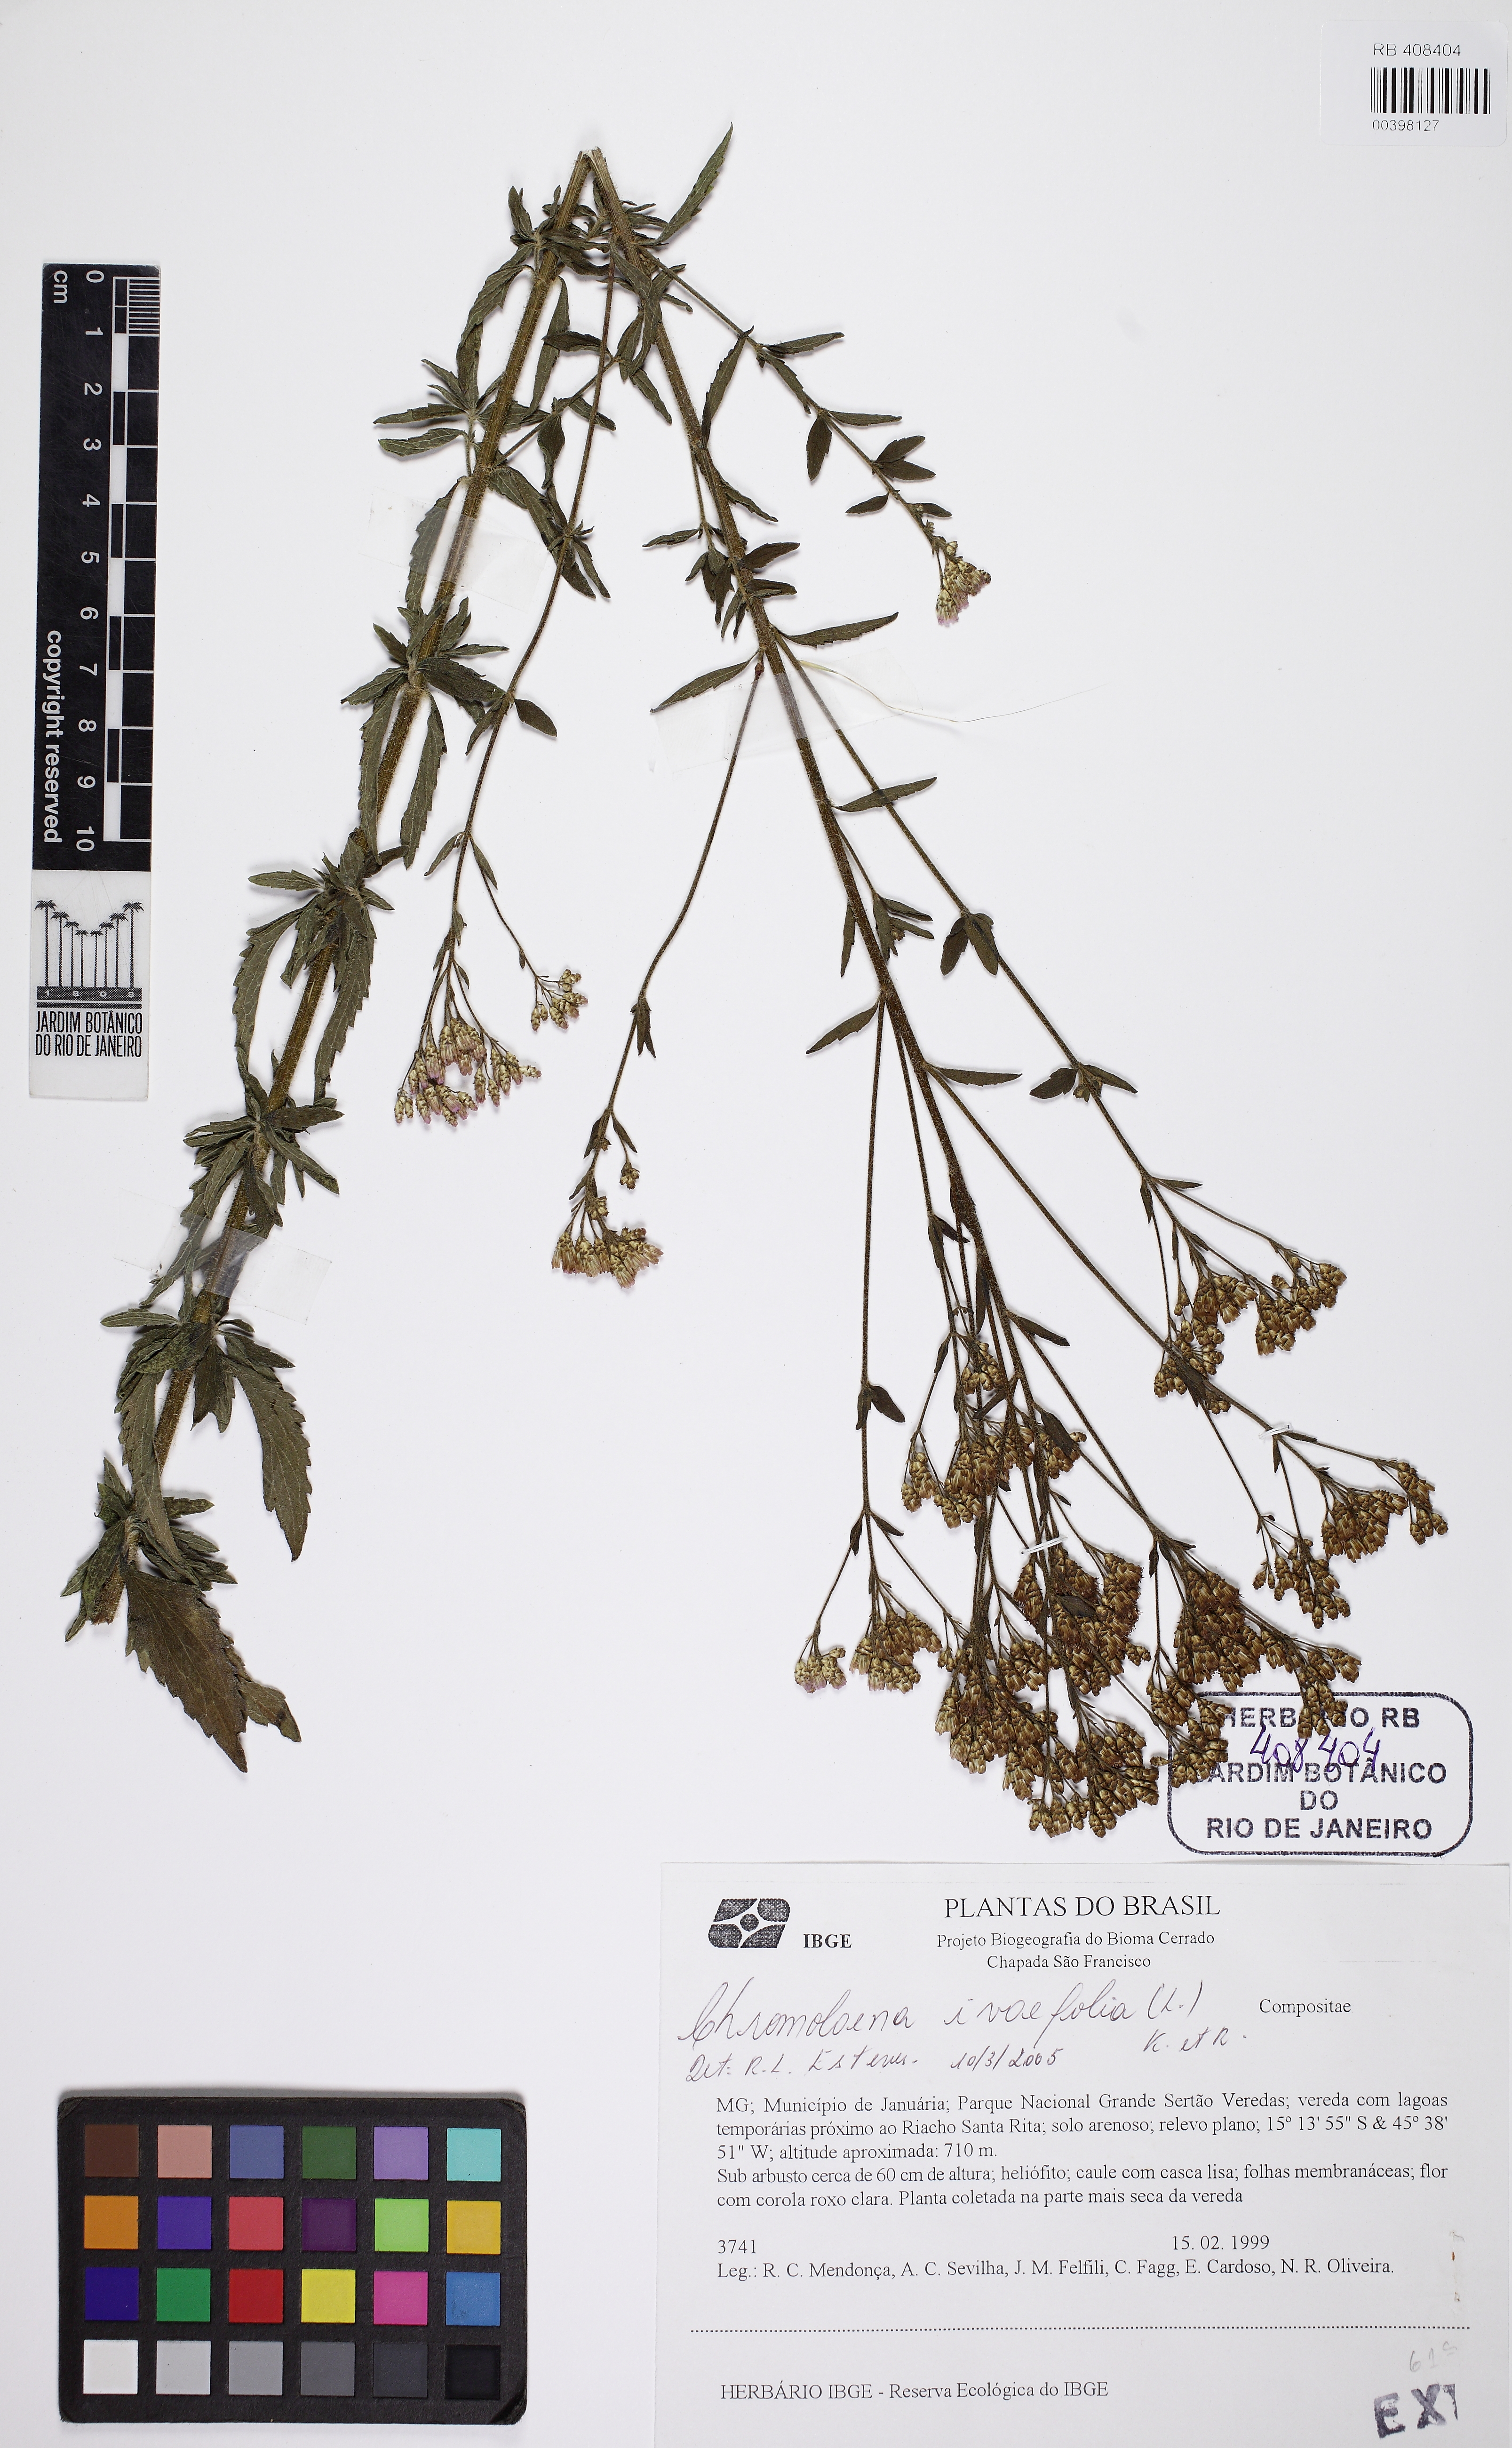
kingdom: Plantae
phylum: Tracheophyta
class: Magnoliopsida
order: Asterales
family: Asteraceae
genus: Chromolaena
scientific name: Chromolaena ivaefolia
